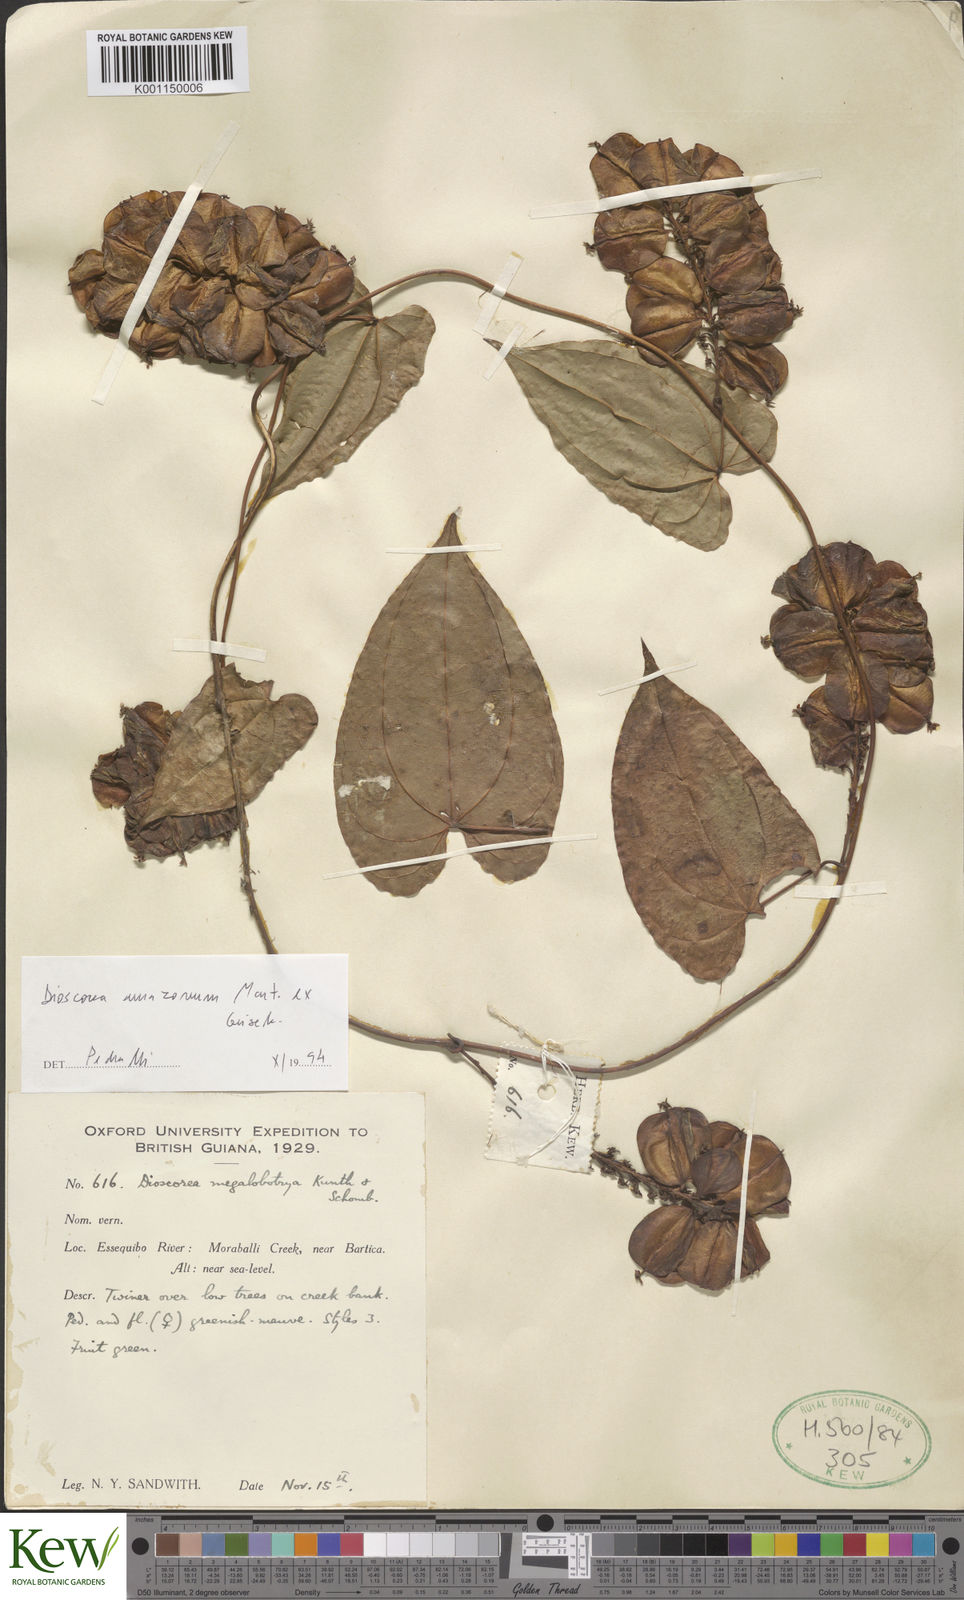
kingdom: Plantae
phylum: Tracheophyta
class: Liliopsida
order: Dioscoreales
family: Dioscoreaceae
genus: Dioscorea
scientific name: Dioscorea amazonum
